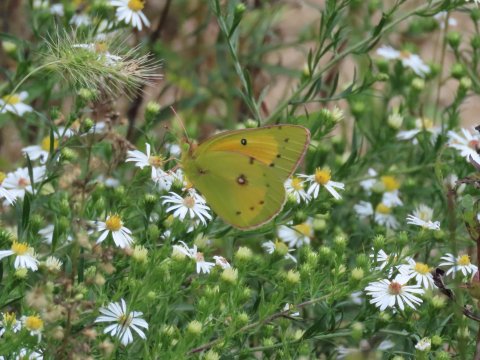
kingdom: Animalia
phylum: Arthropoda
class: Insecta
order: Lepidoptera
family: Pieridae
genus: Colias
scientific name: Colias eurytheme
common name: Orange Sulphur
